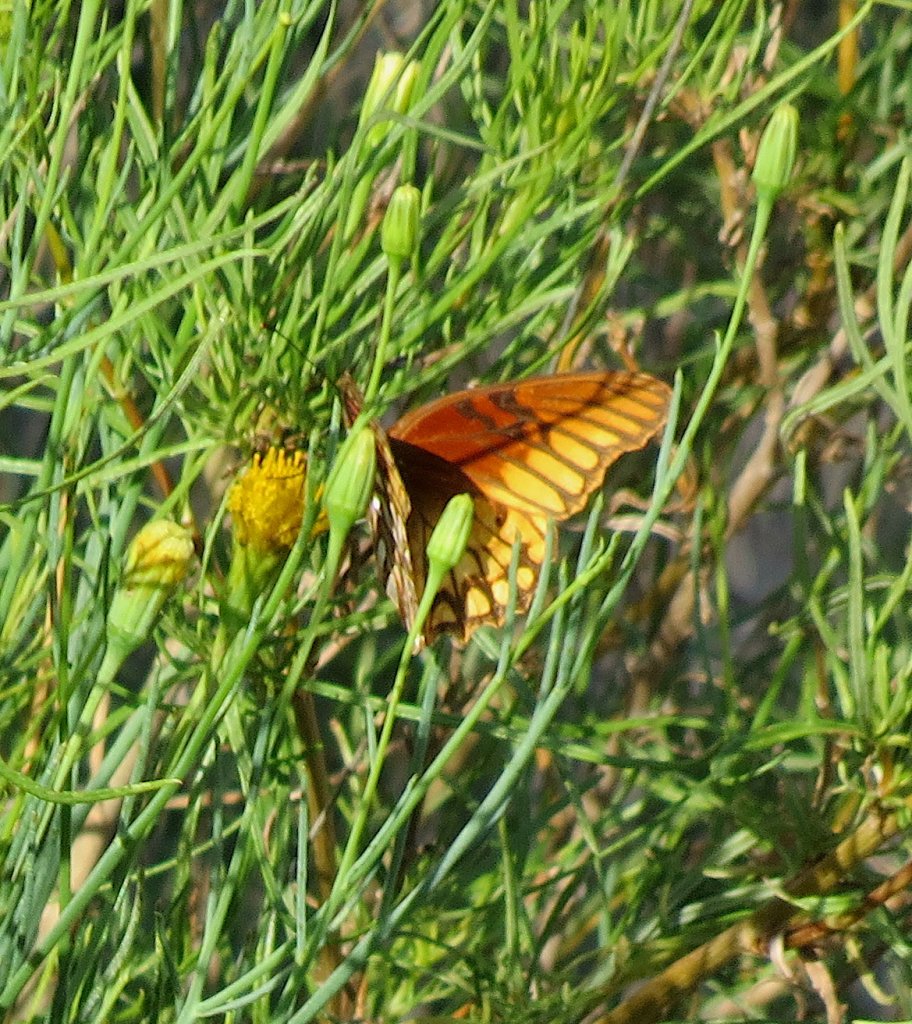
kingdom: Animalia
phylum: Arthropoda
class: Insecta
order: Lepidoptera
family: Nymphalidae
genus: Dione
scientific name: Dione moneta
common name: Mexican Silverspot
